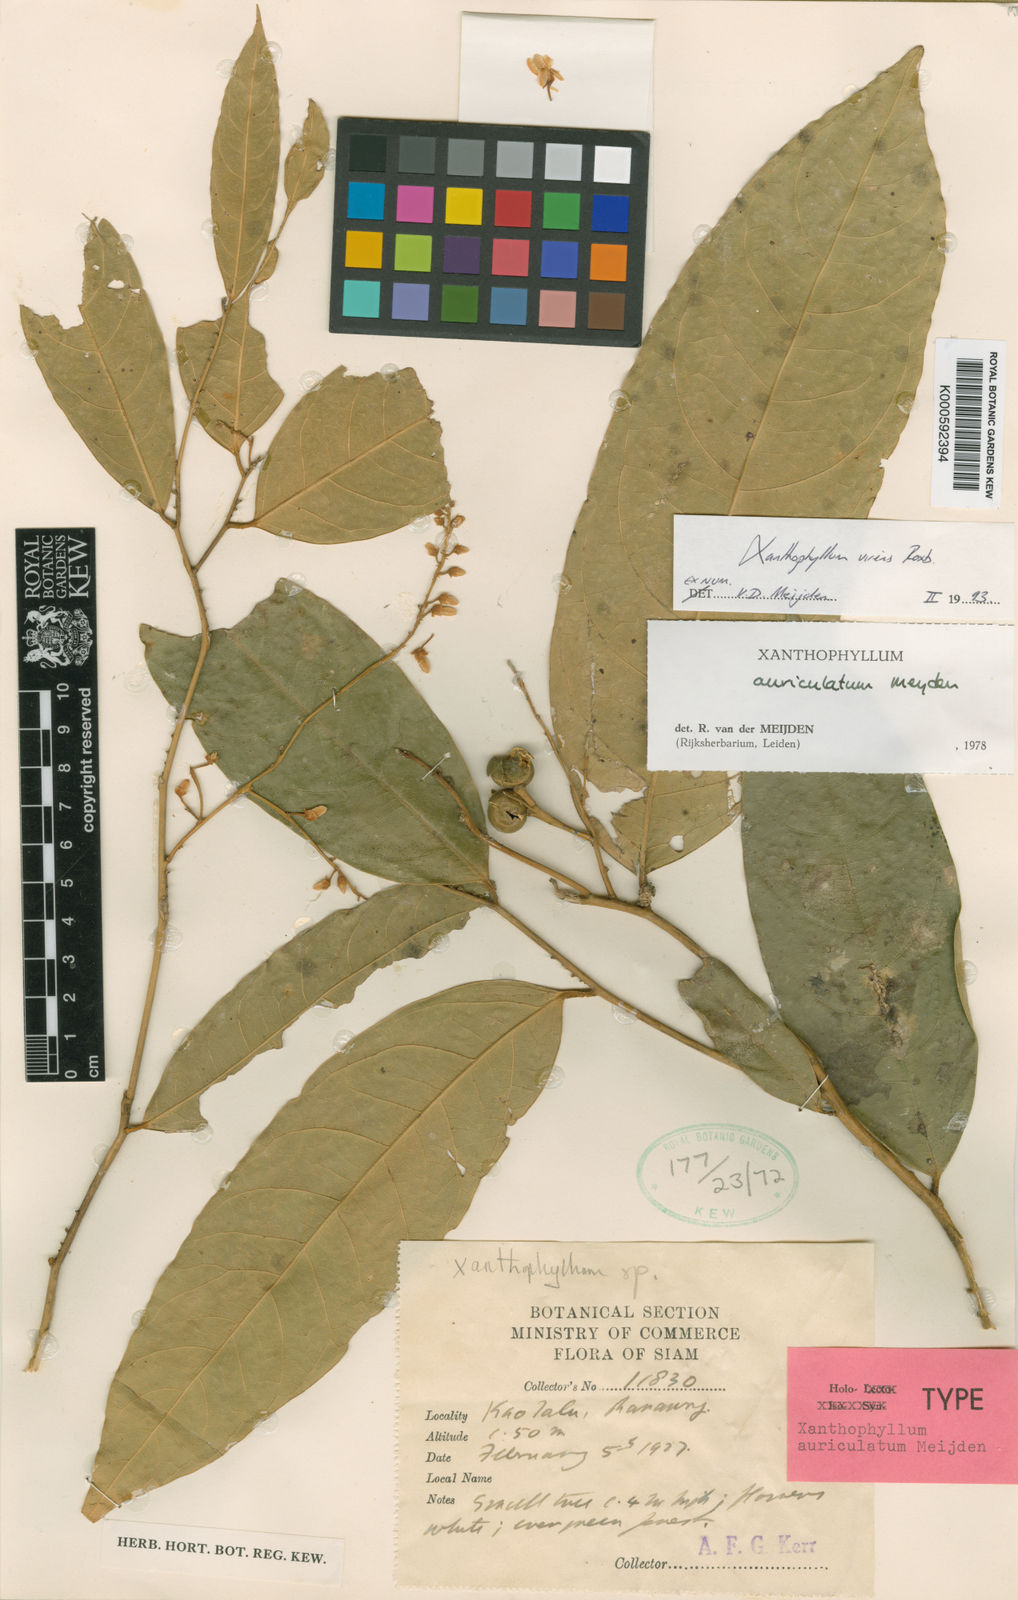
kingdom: Plantae
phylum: Tracheophyta
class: Magnoliopsida
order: Fabales
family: Polygalaceae
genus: Xanthophyllum
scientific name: Xanthophyllum virens
